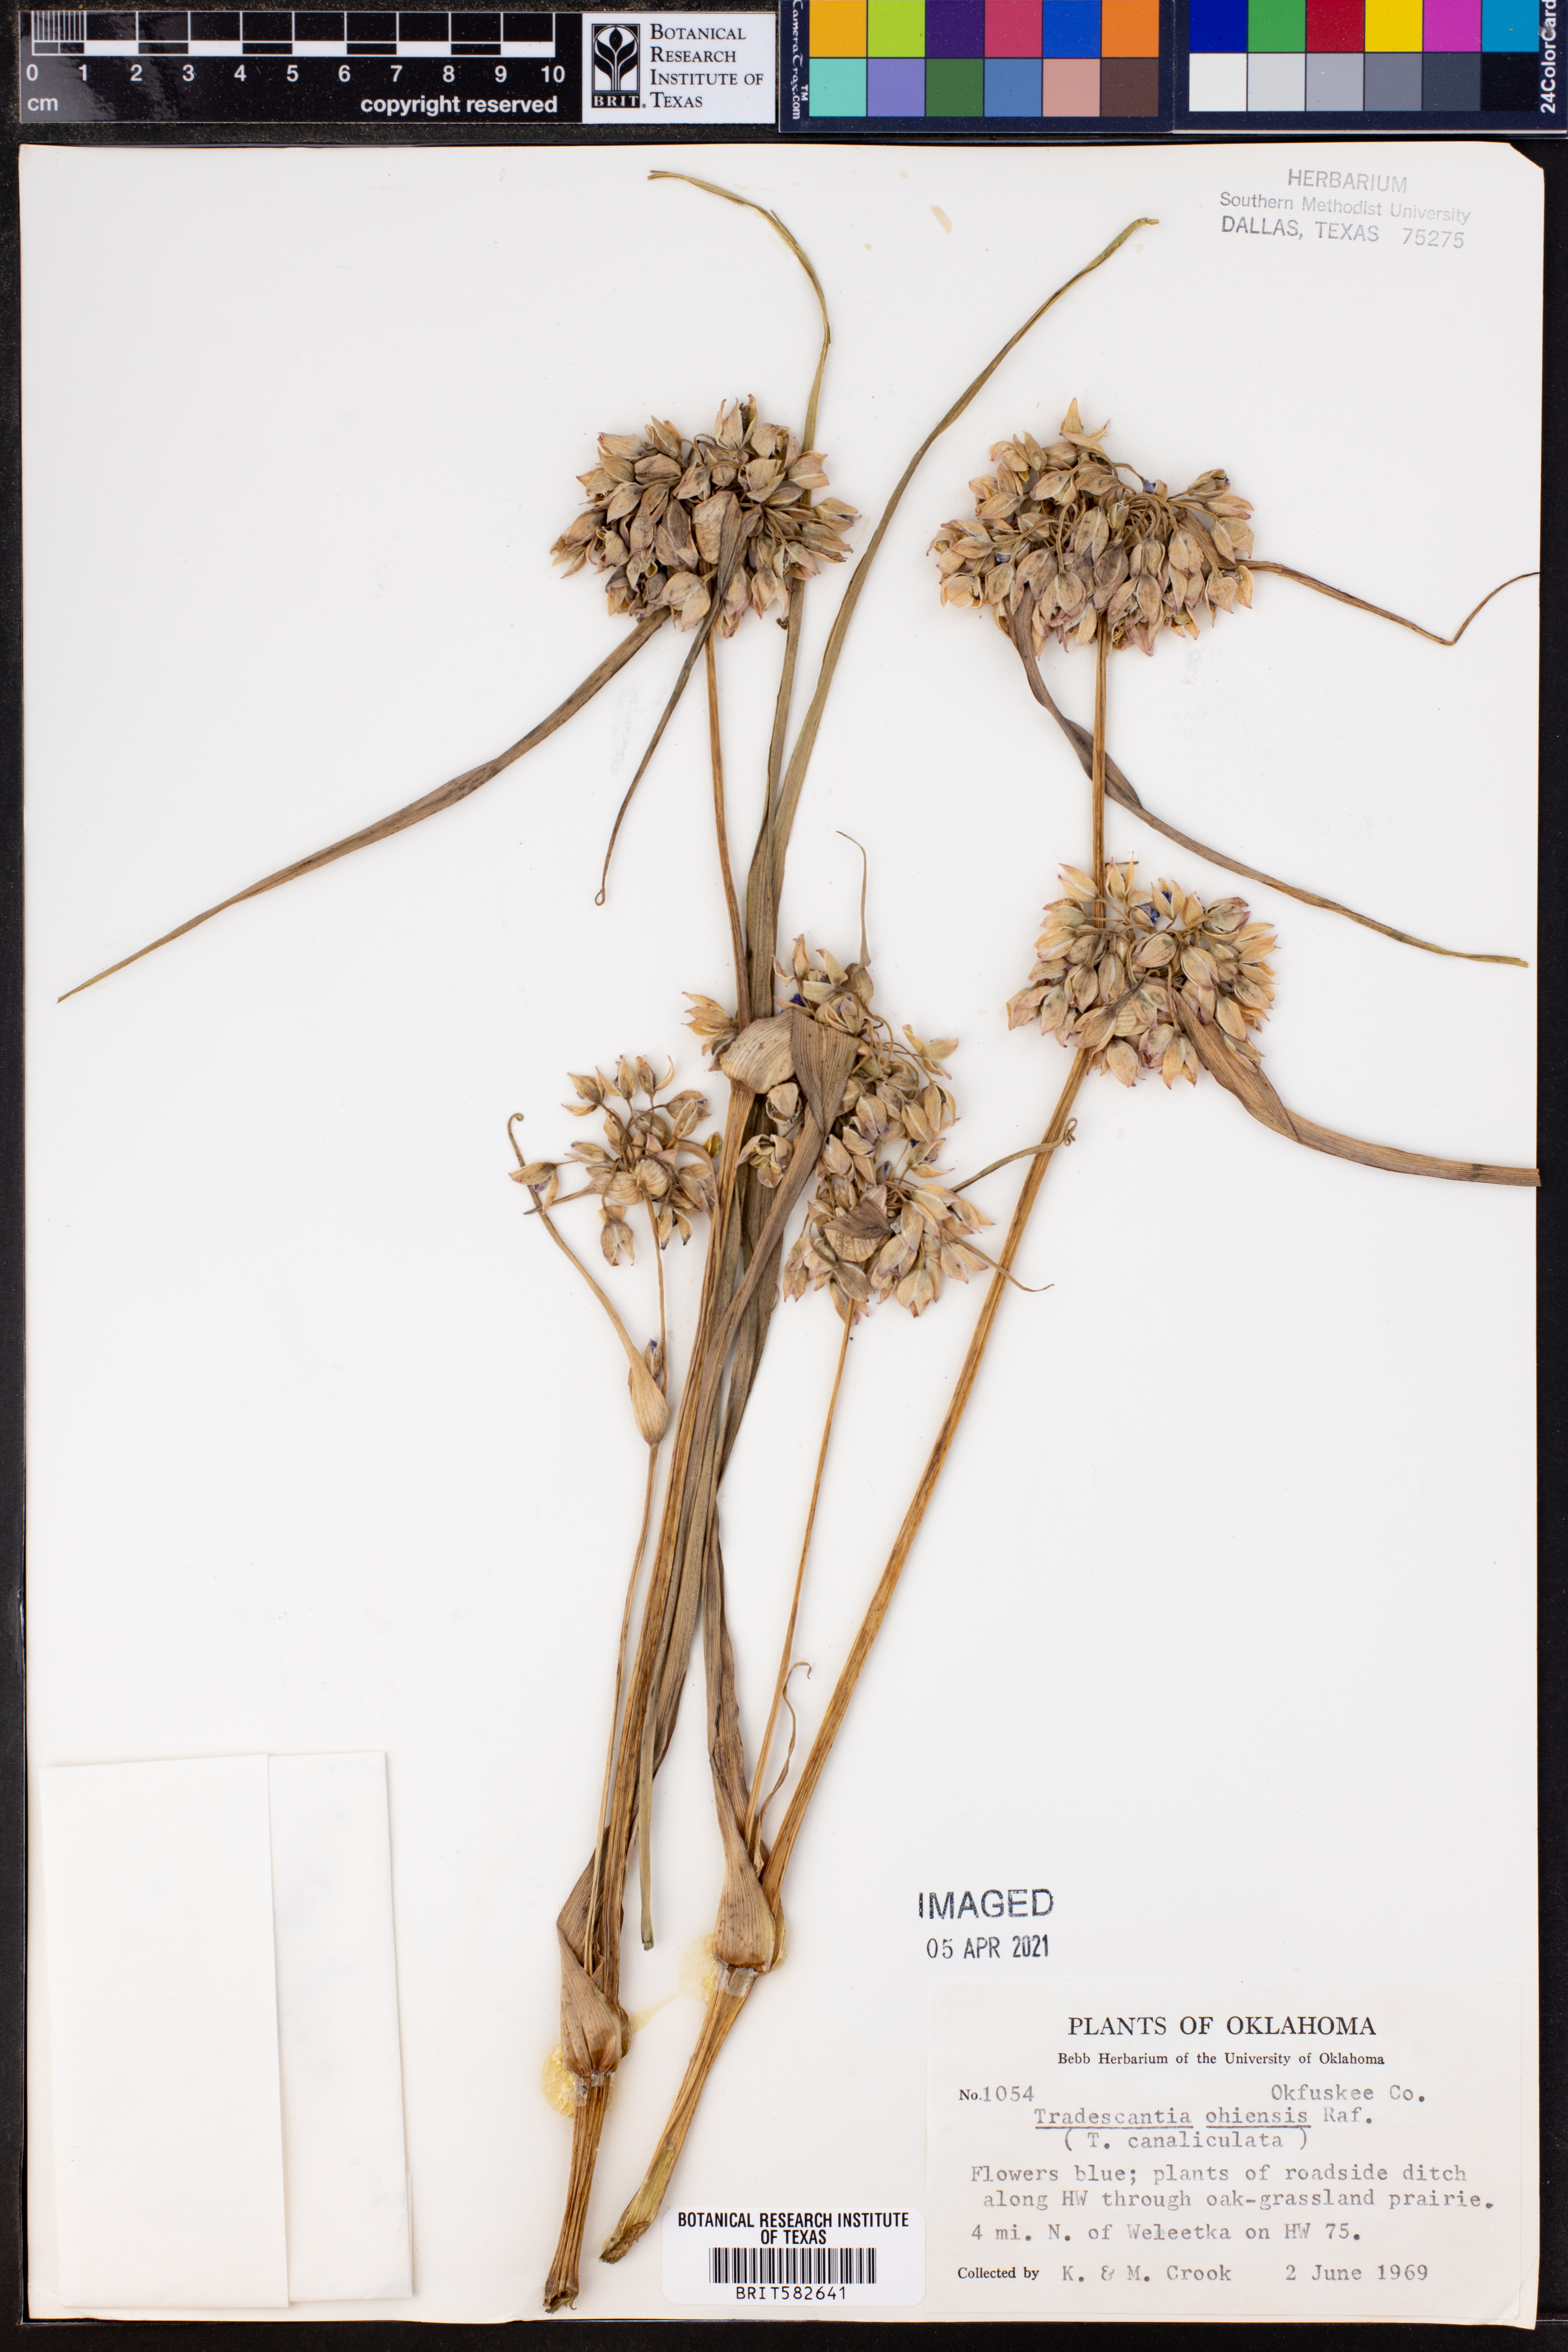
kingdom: Plantae
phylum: Tracheophyta
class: Liliopsida
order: Commelinales
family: Commelinaceae
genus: Tradescantia
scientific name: Tradescantia ohiensis
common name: Ohio spiderwort
